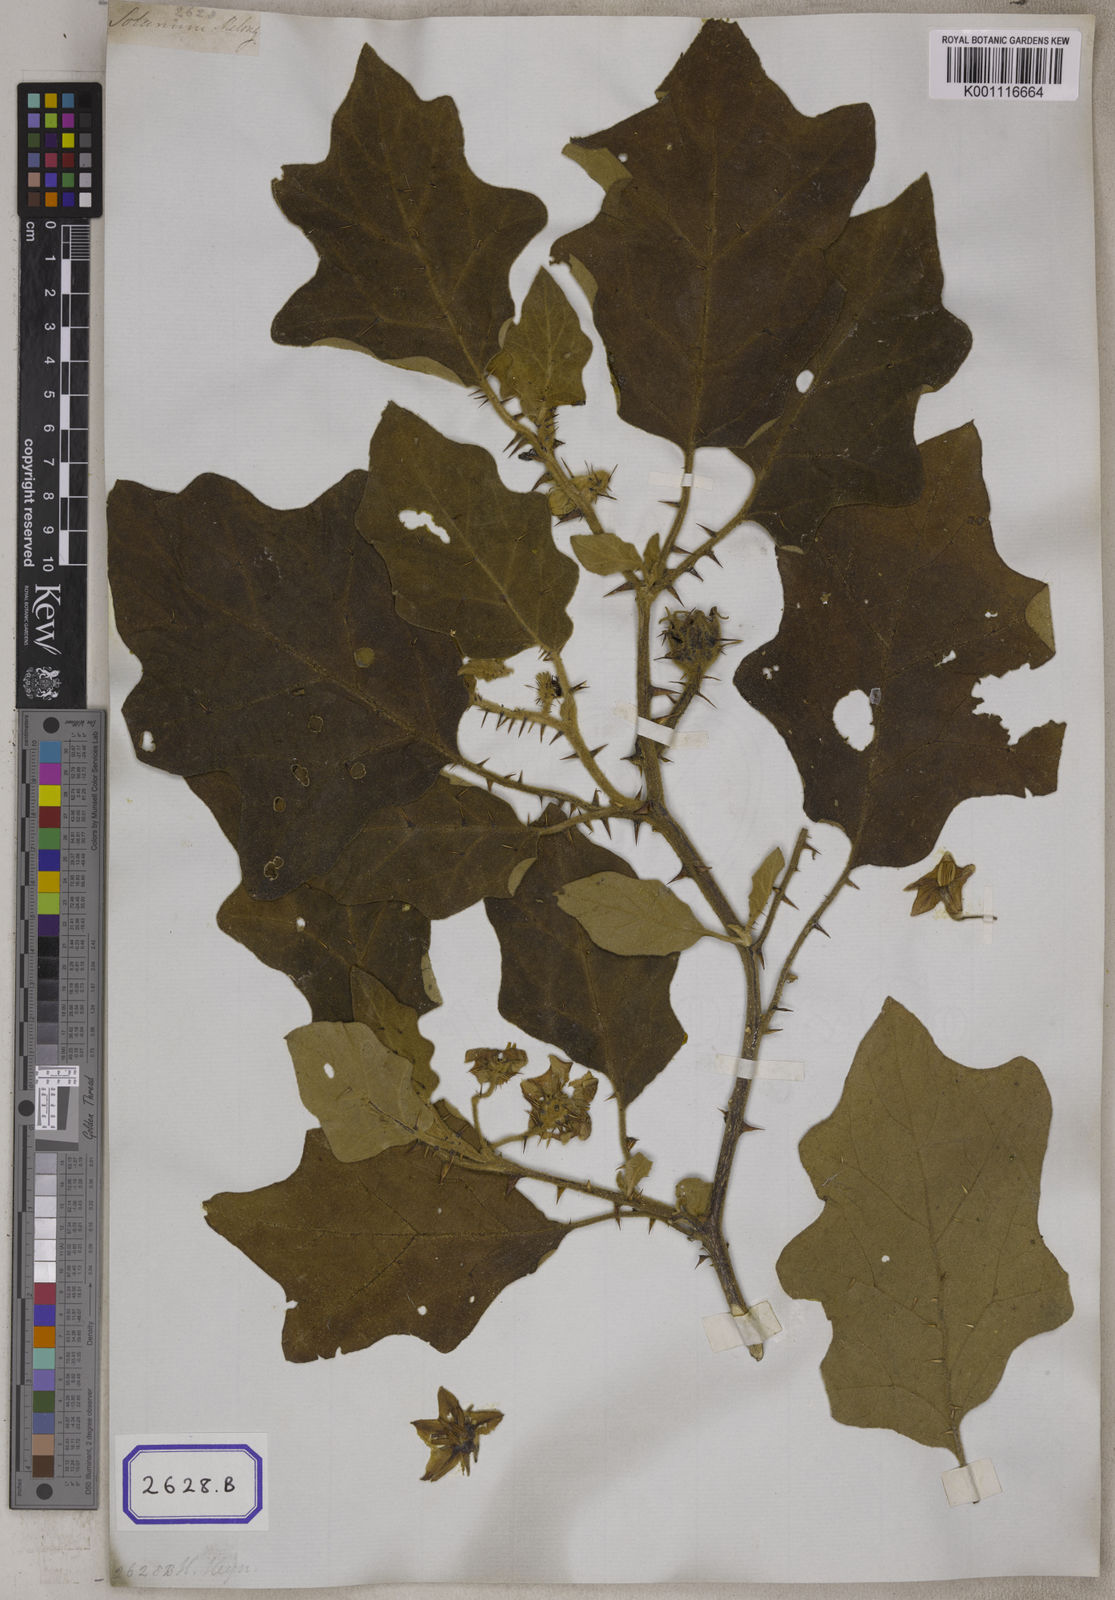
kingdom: Plantae
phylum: Tracheophyta
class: Magnoliopsida
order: Solanales
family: Solanaceae
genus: Solanum
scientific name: Solanum melongena
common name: Eggplant
